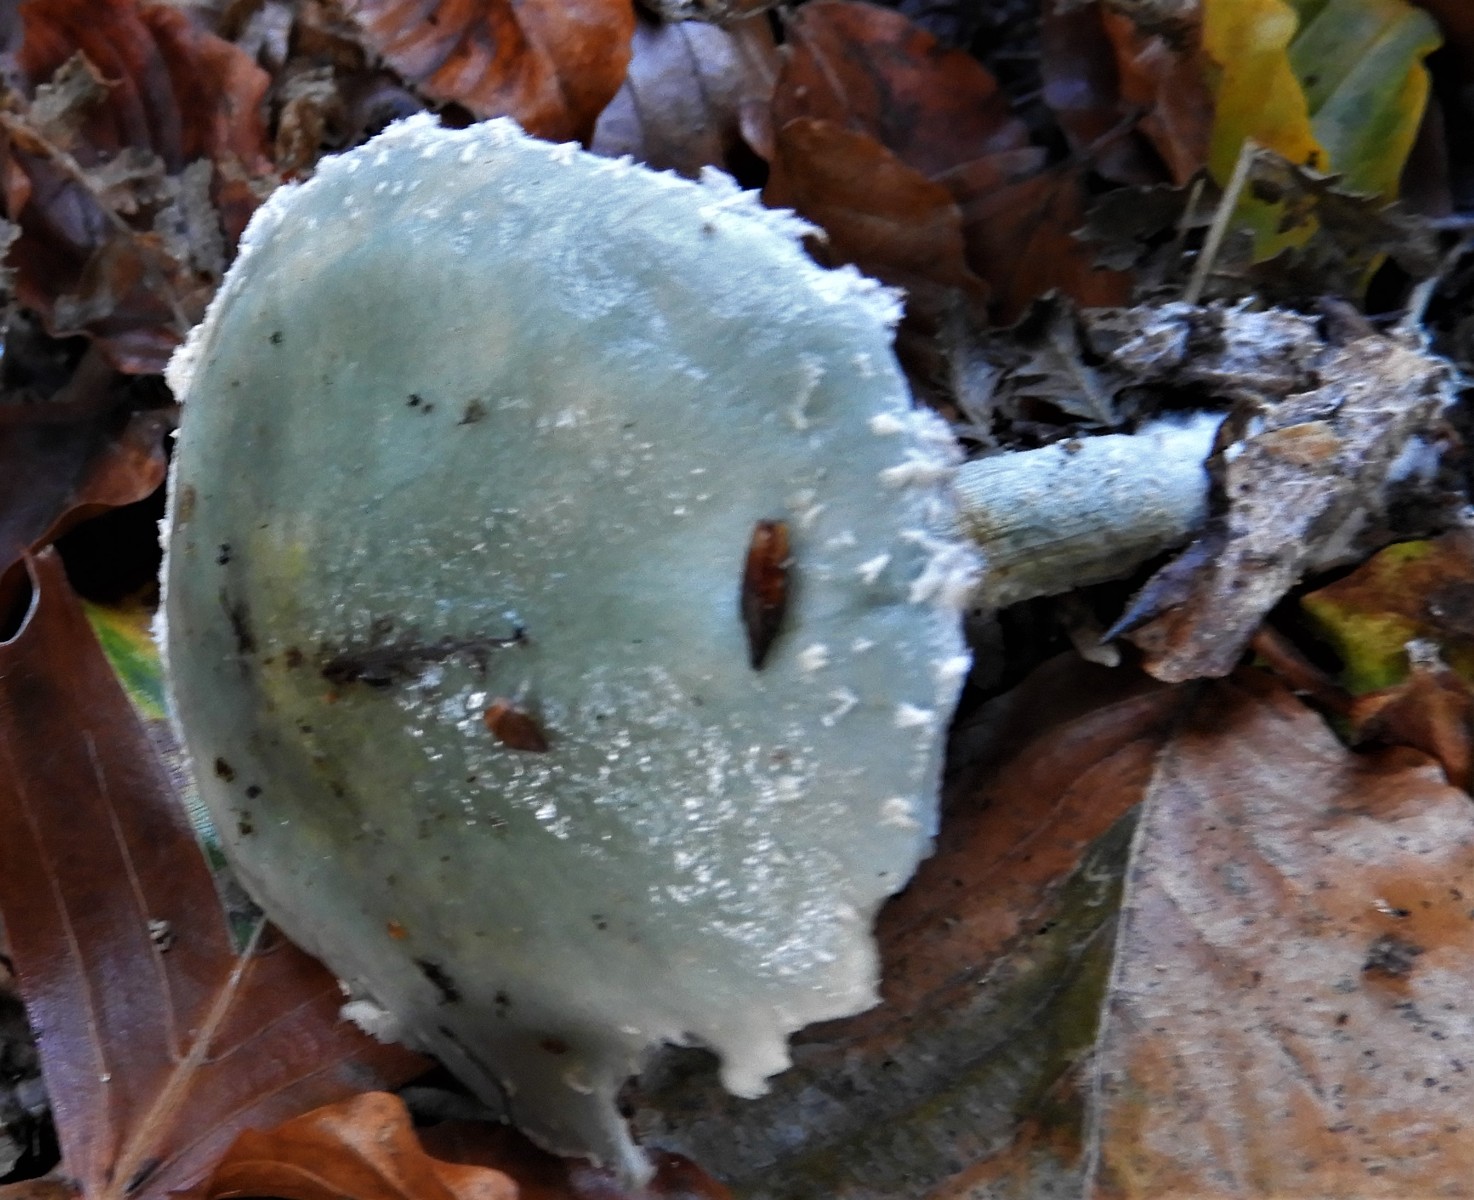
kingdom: Fungi
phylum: Basidiomycota
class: Agaricomycetes
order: Agaricales
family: Strophariaceae
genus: Stropharia
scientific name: Stropharia cyanea
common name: blågrøn bredblad
